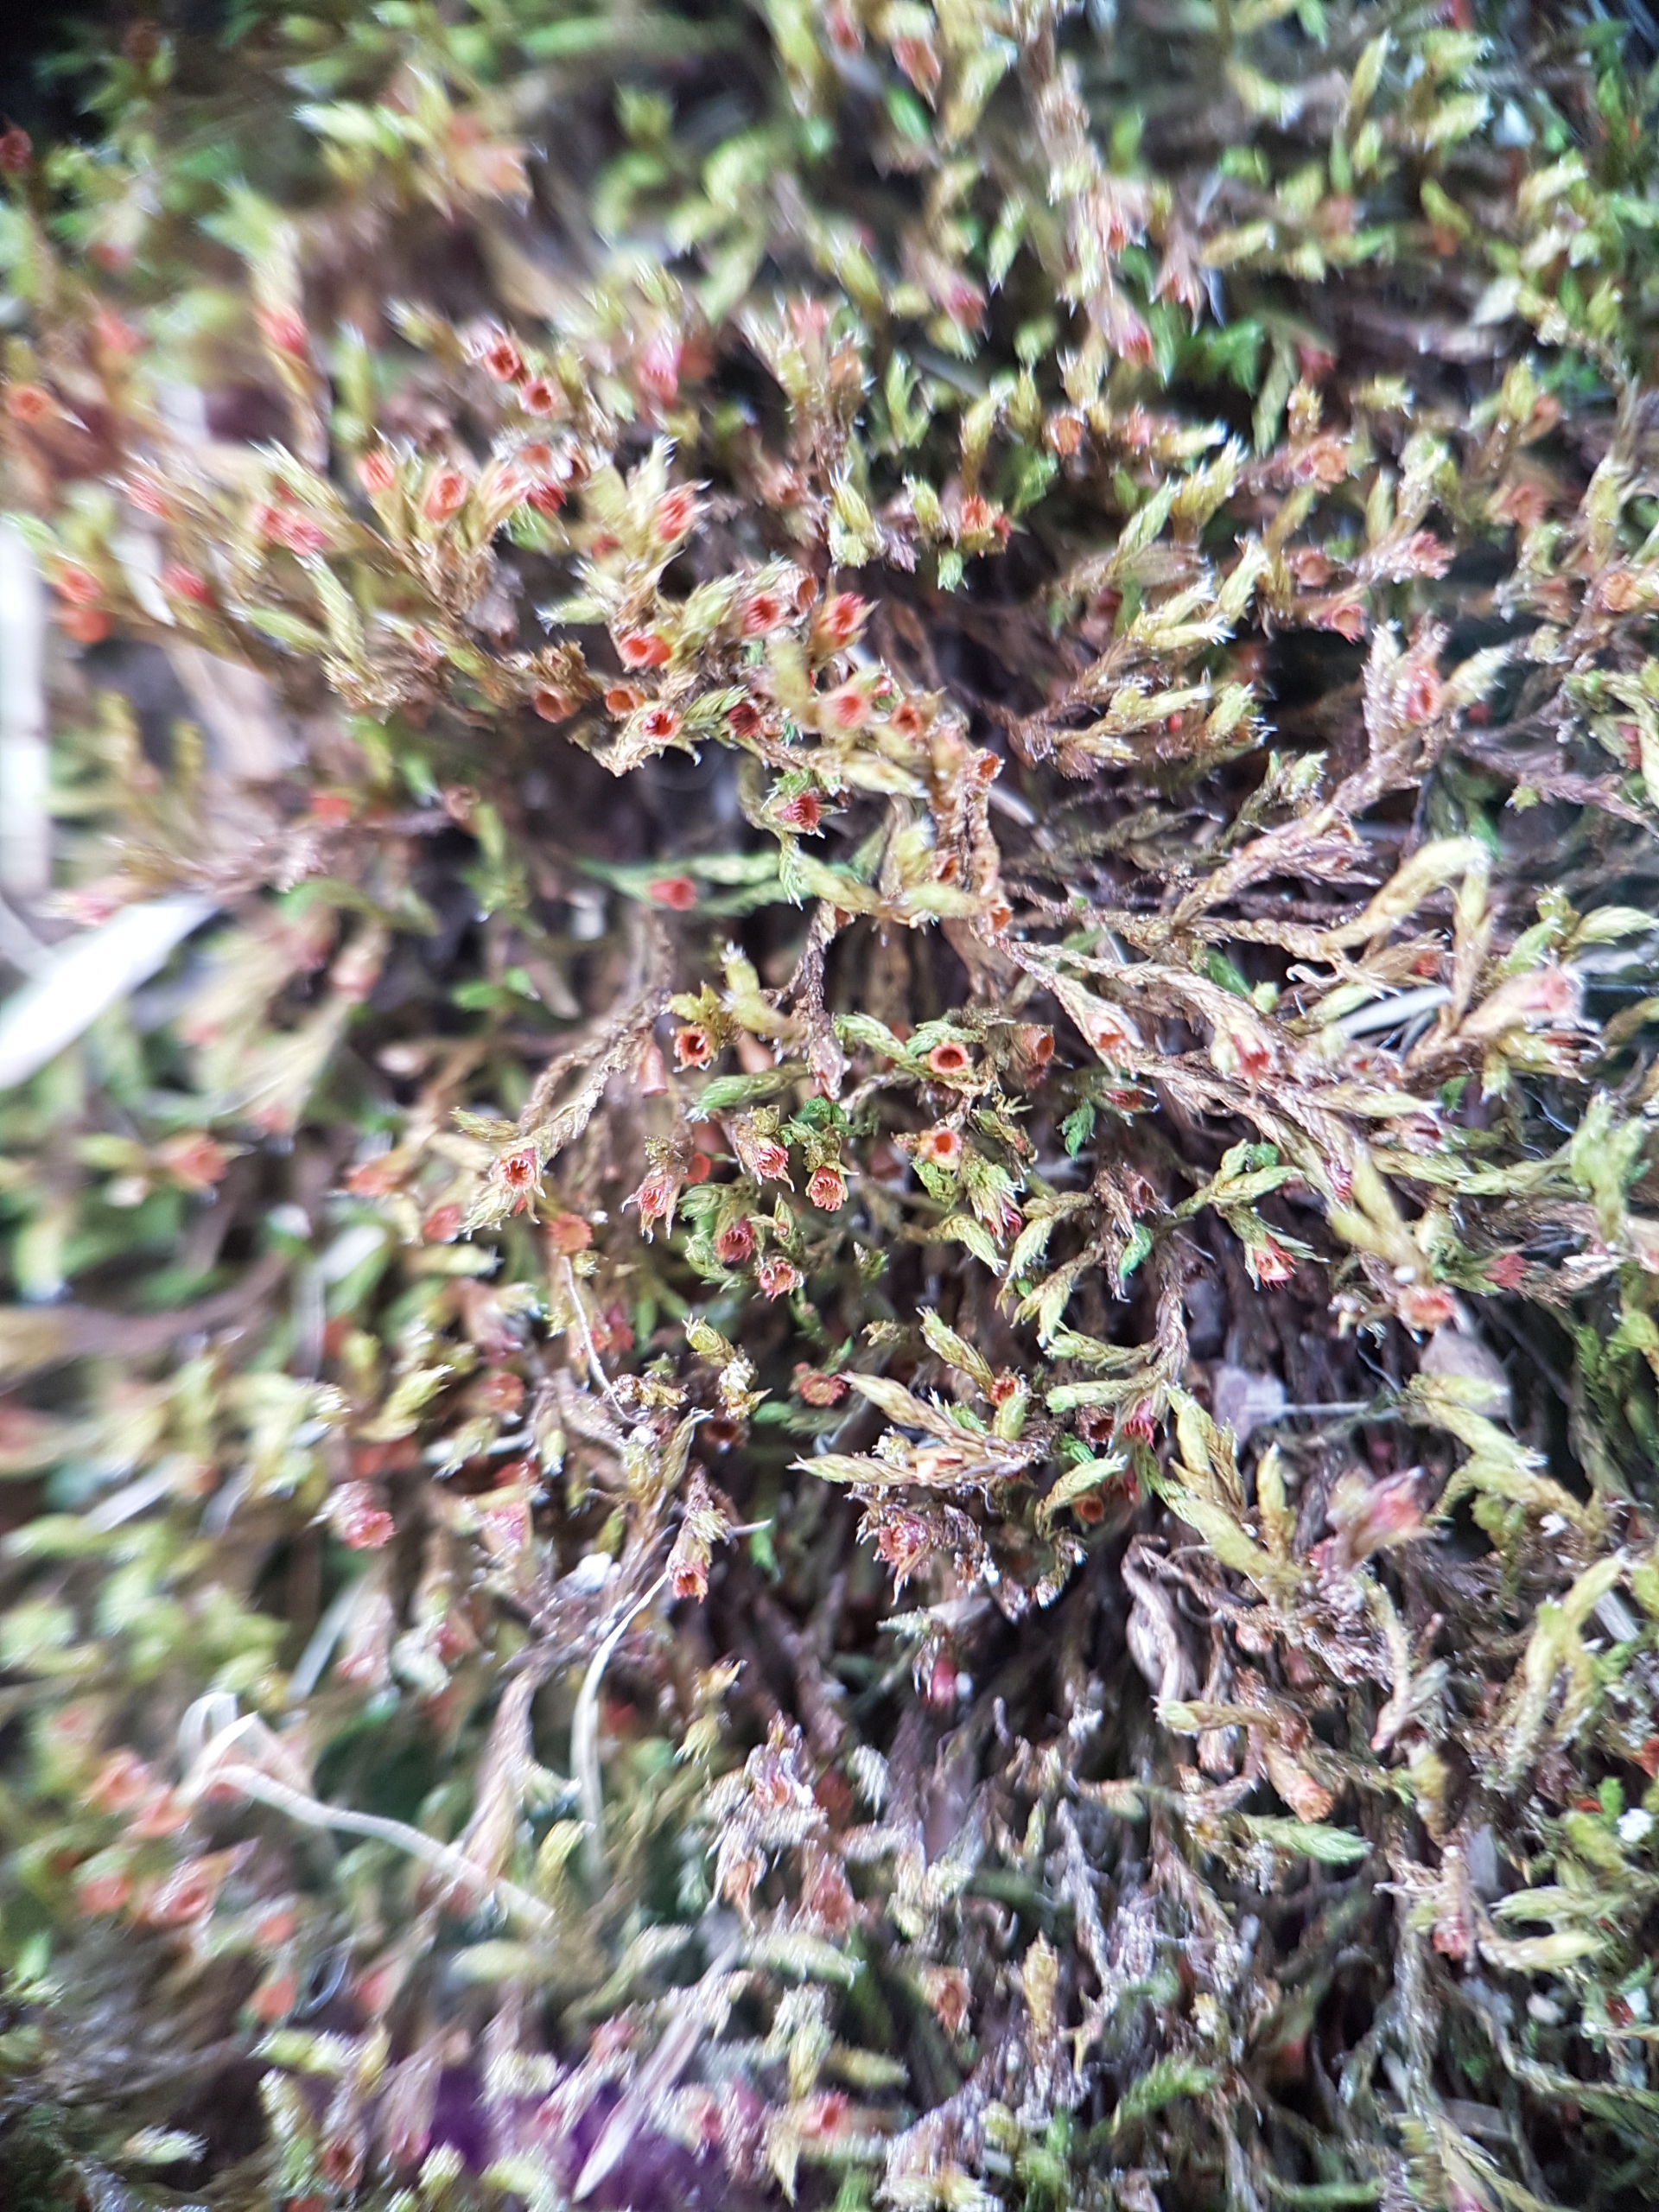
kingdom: Plantae
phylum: Bryophyta
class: Bryopsida
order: Grimmiales
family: Grimmiaceae
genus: Schistidium
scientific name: Schistidium apocarpum
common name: Grå strålekransmos
